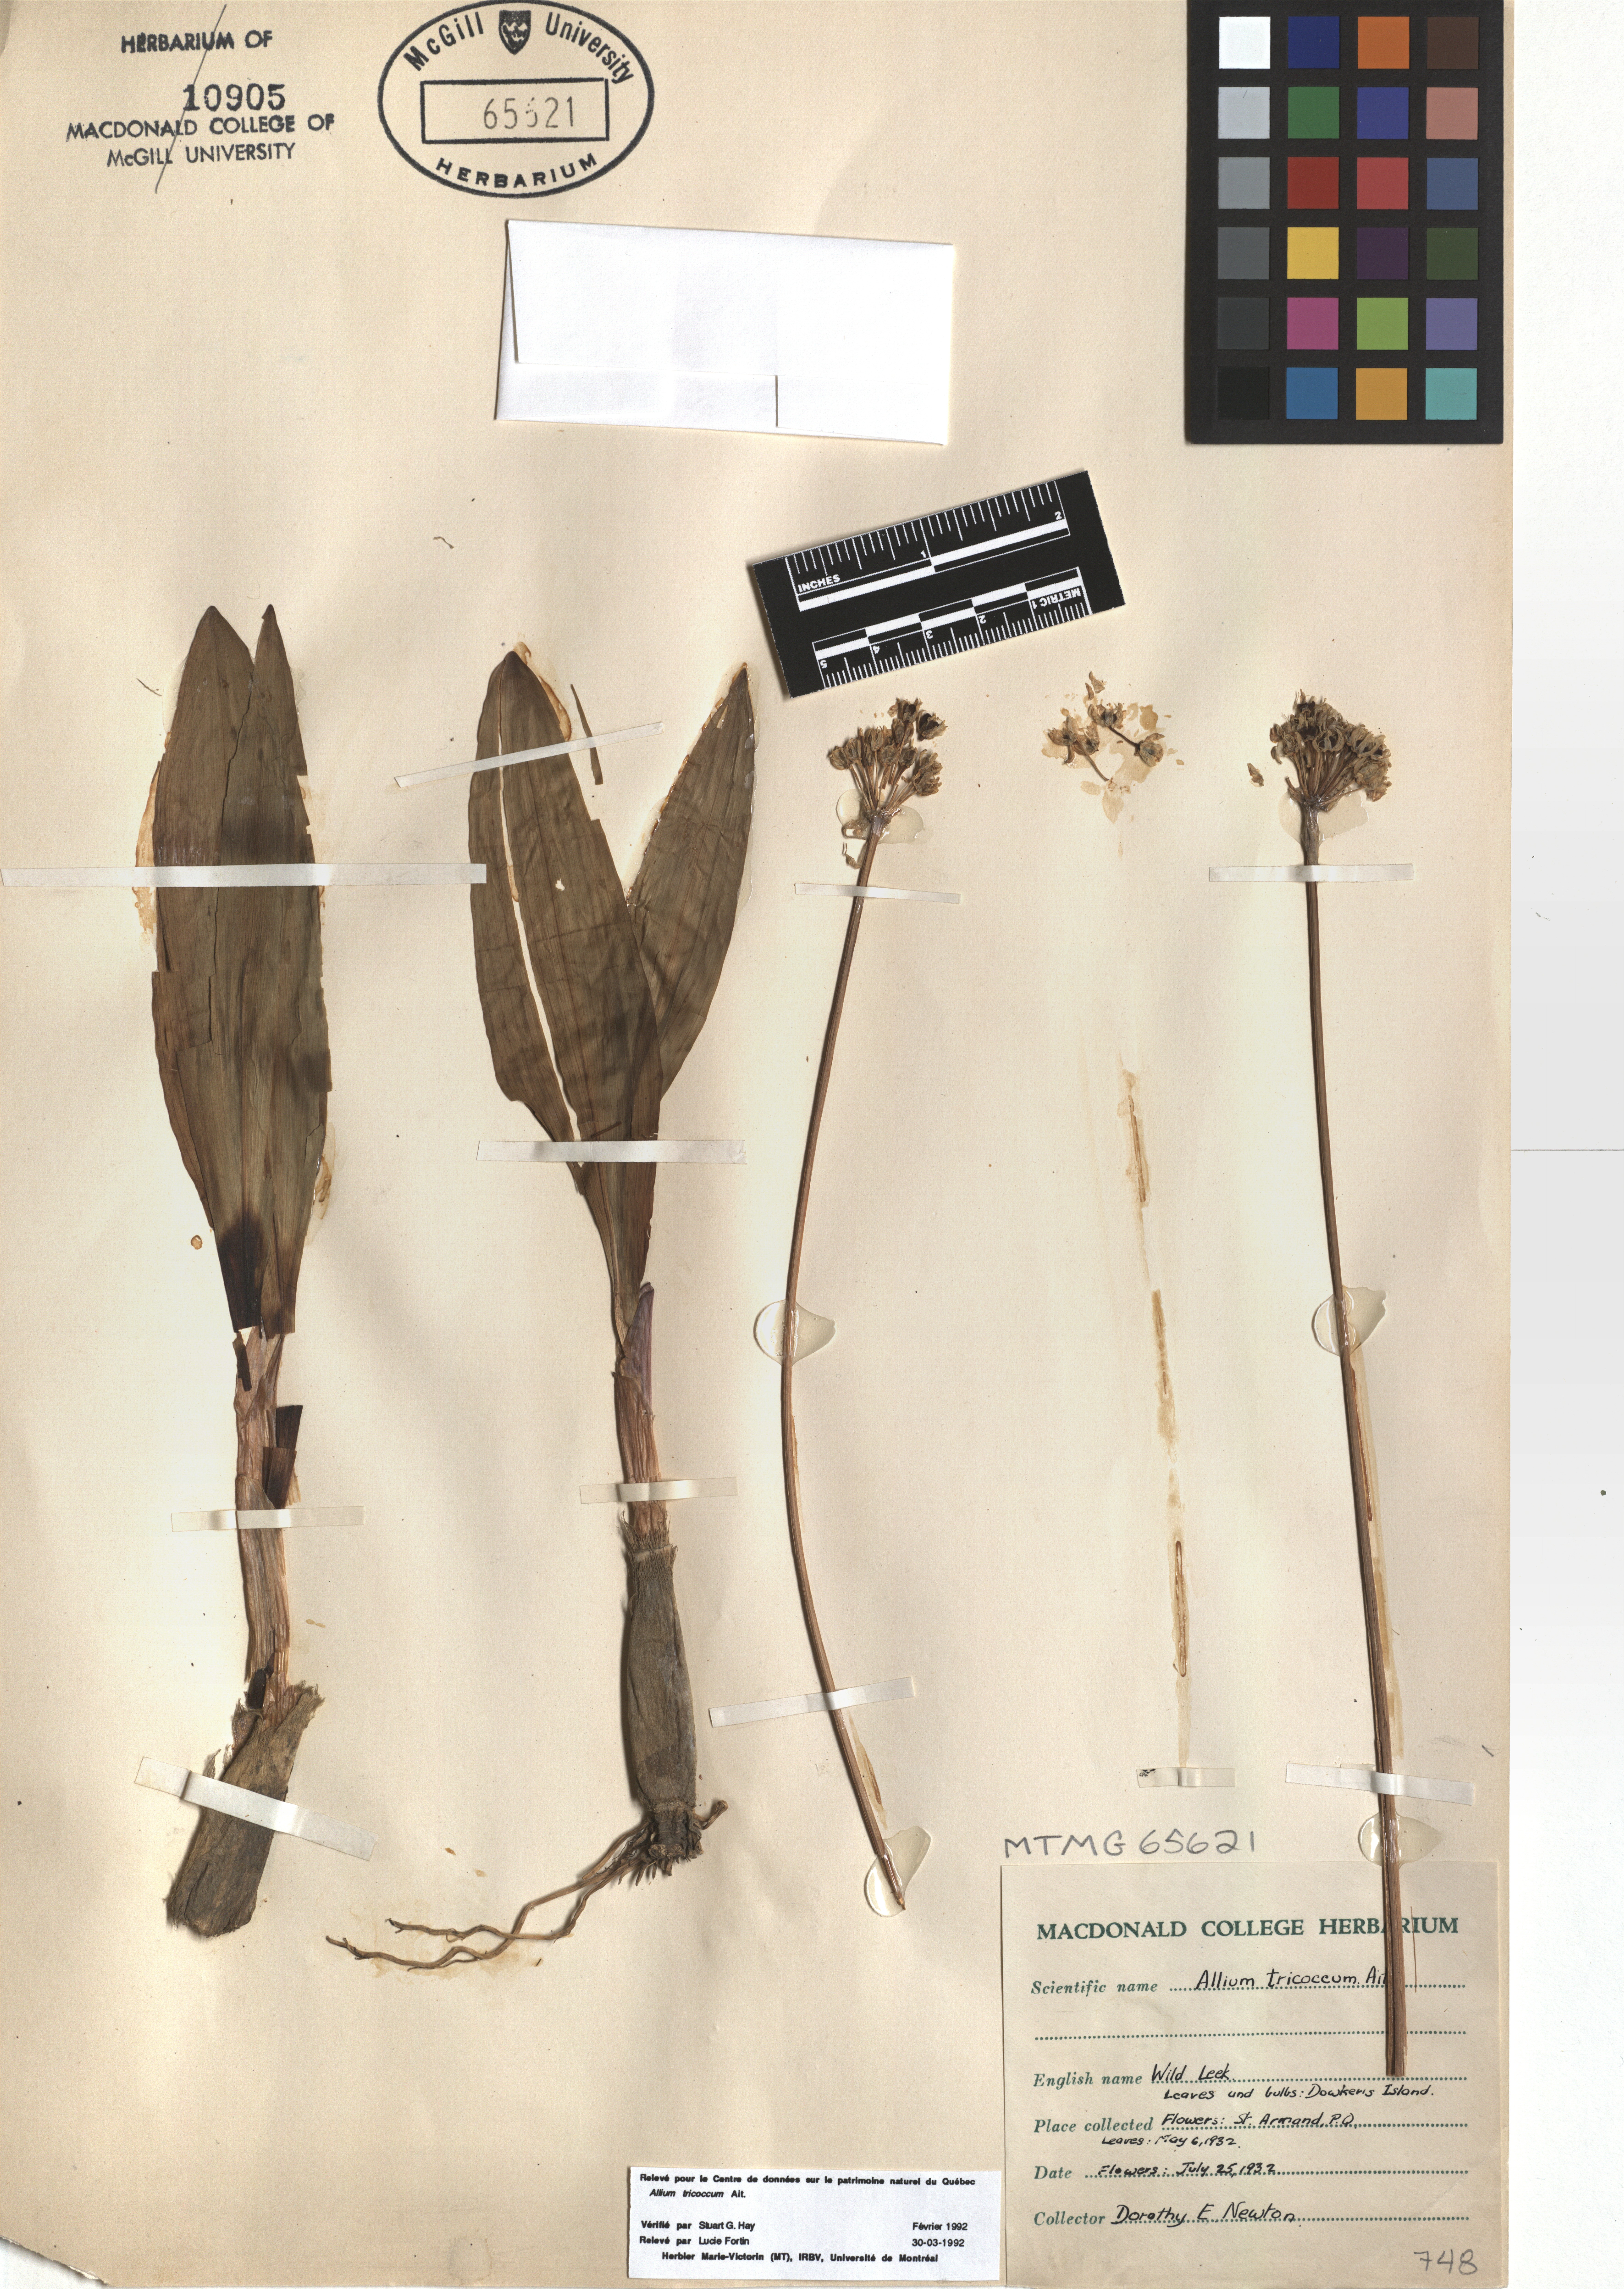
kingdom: Plantae
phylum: Tracheophyta
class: Liliopsida
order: Asparagales
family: Amaryllidaceae
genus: Allium
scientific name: Allium tricoccum
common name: Ramp
